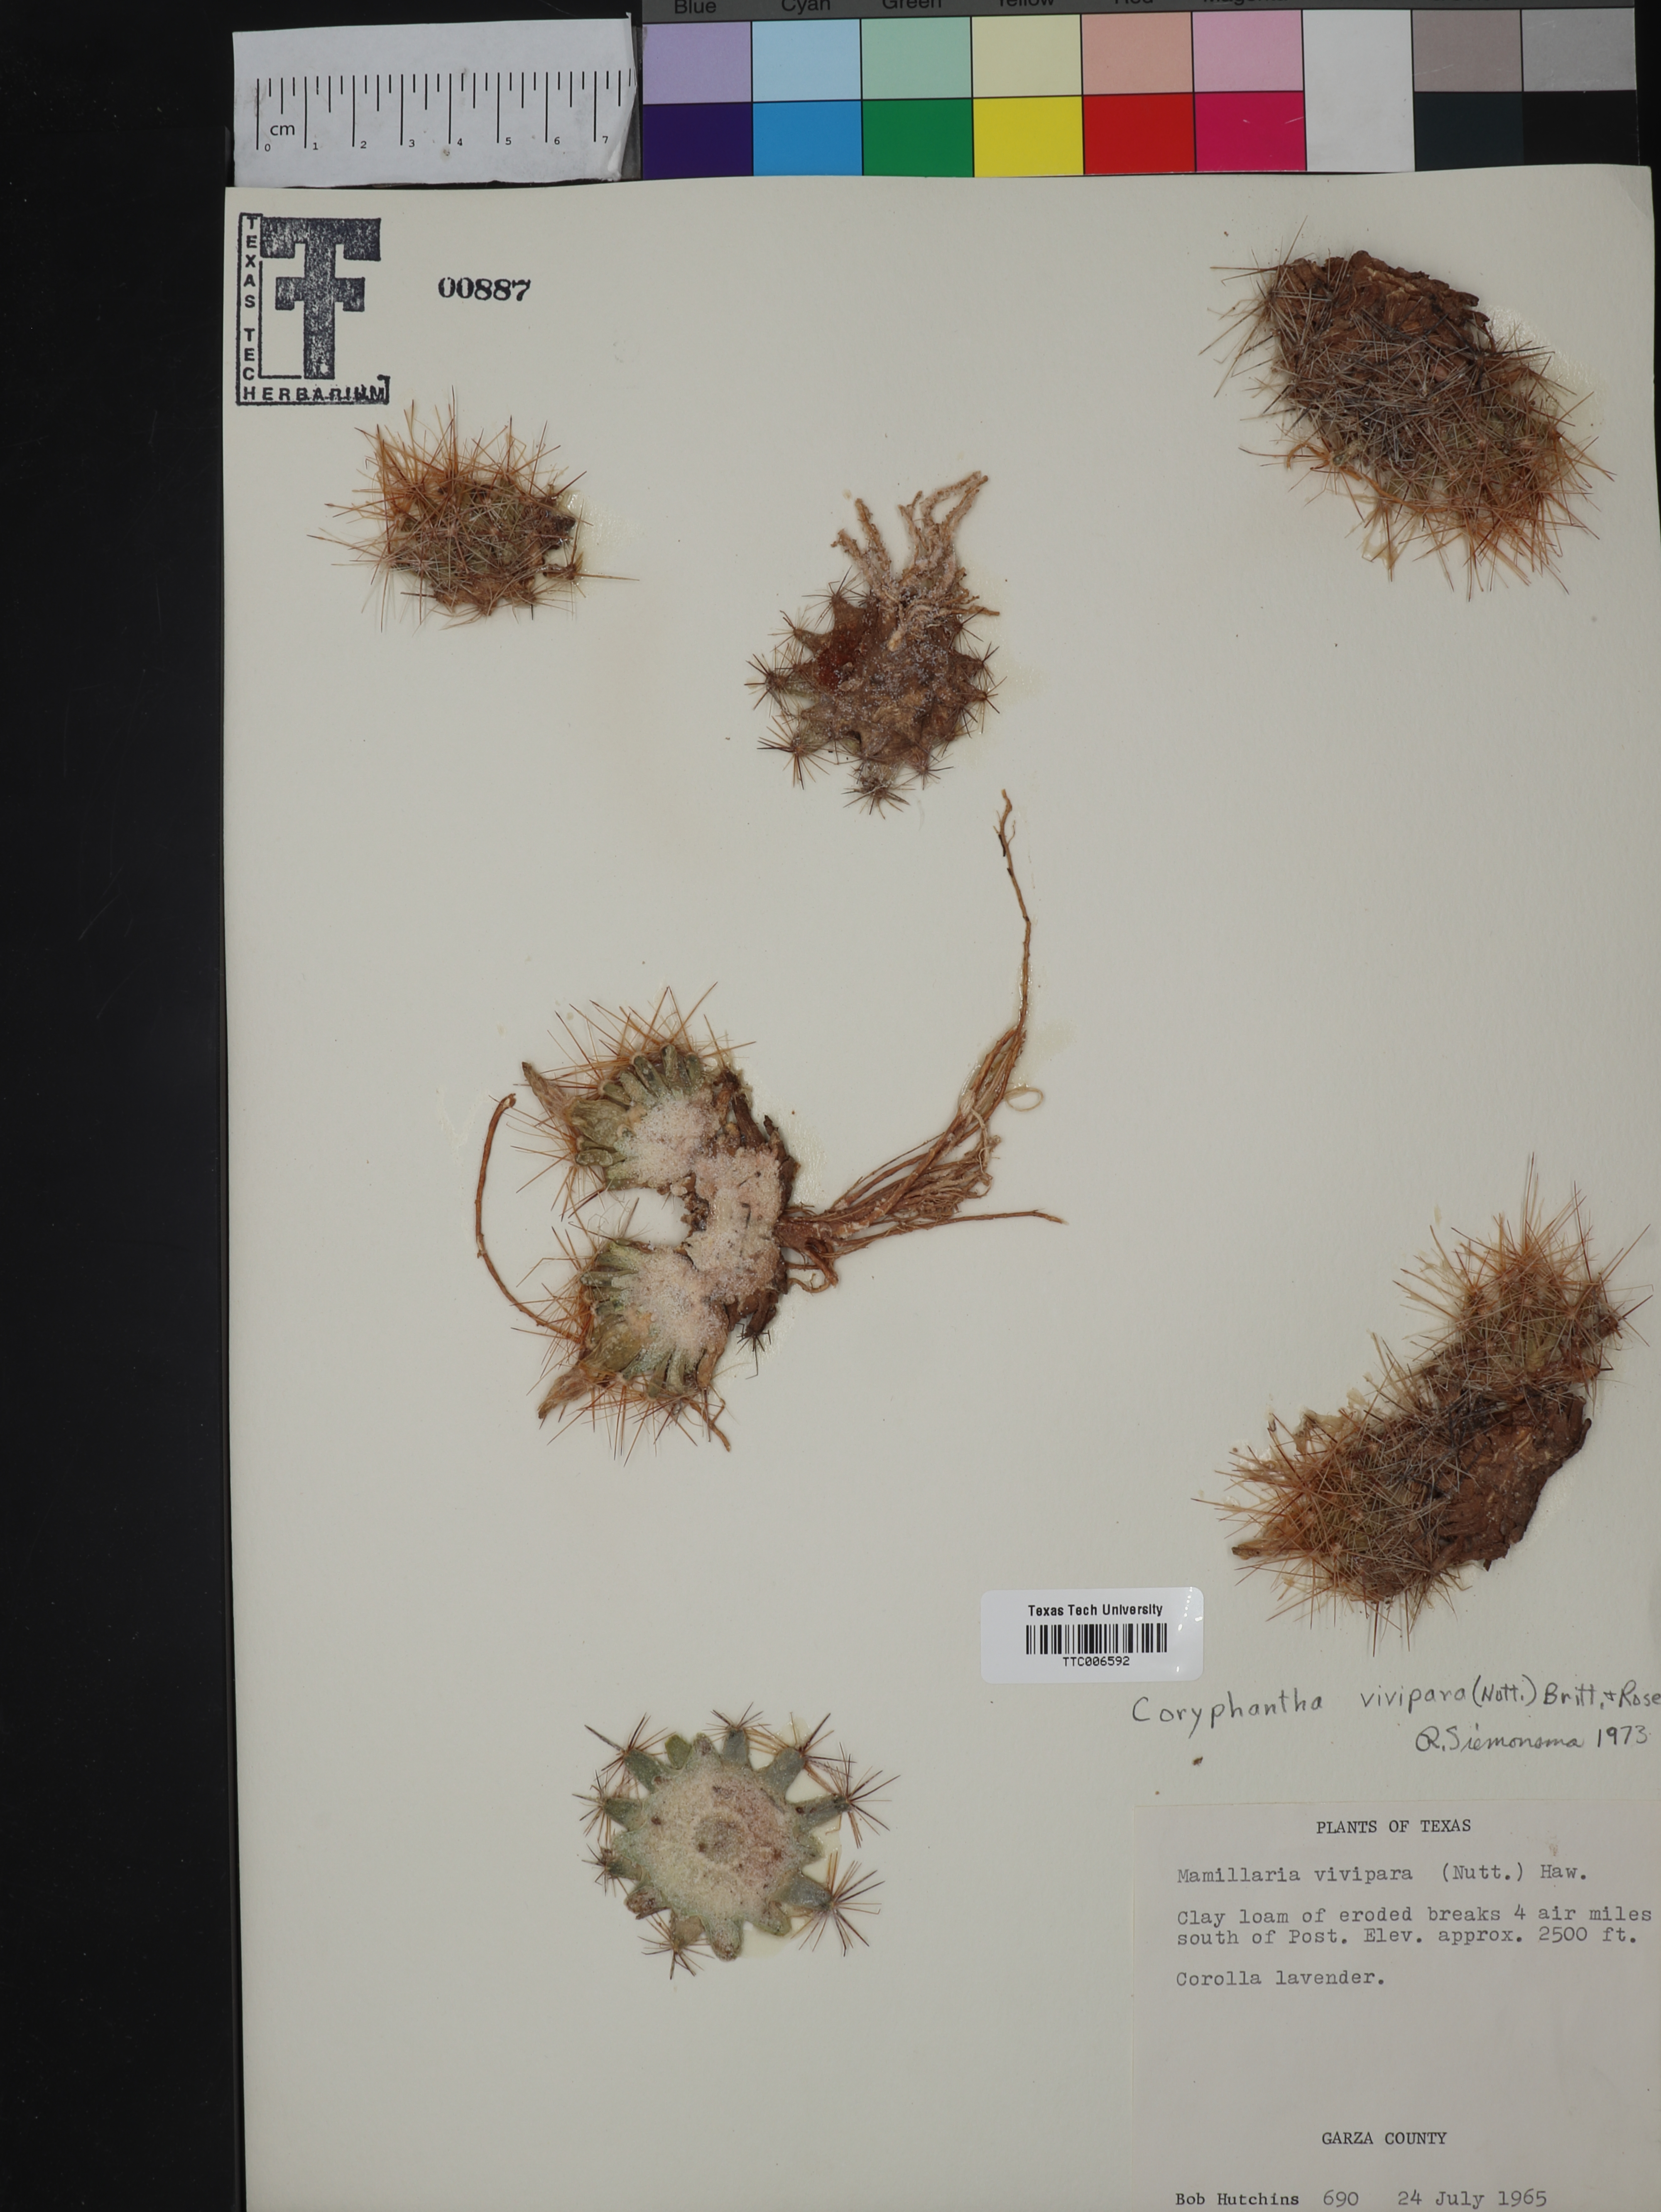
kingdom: Plantae
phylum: Tracheophyta
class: Magnoliopsida
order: Caryophyllales
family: Cactaceae
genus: Pelecyphora
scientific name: Pelecyphora vivipara
